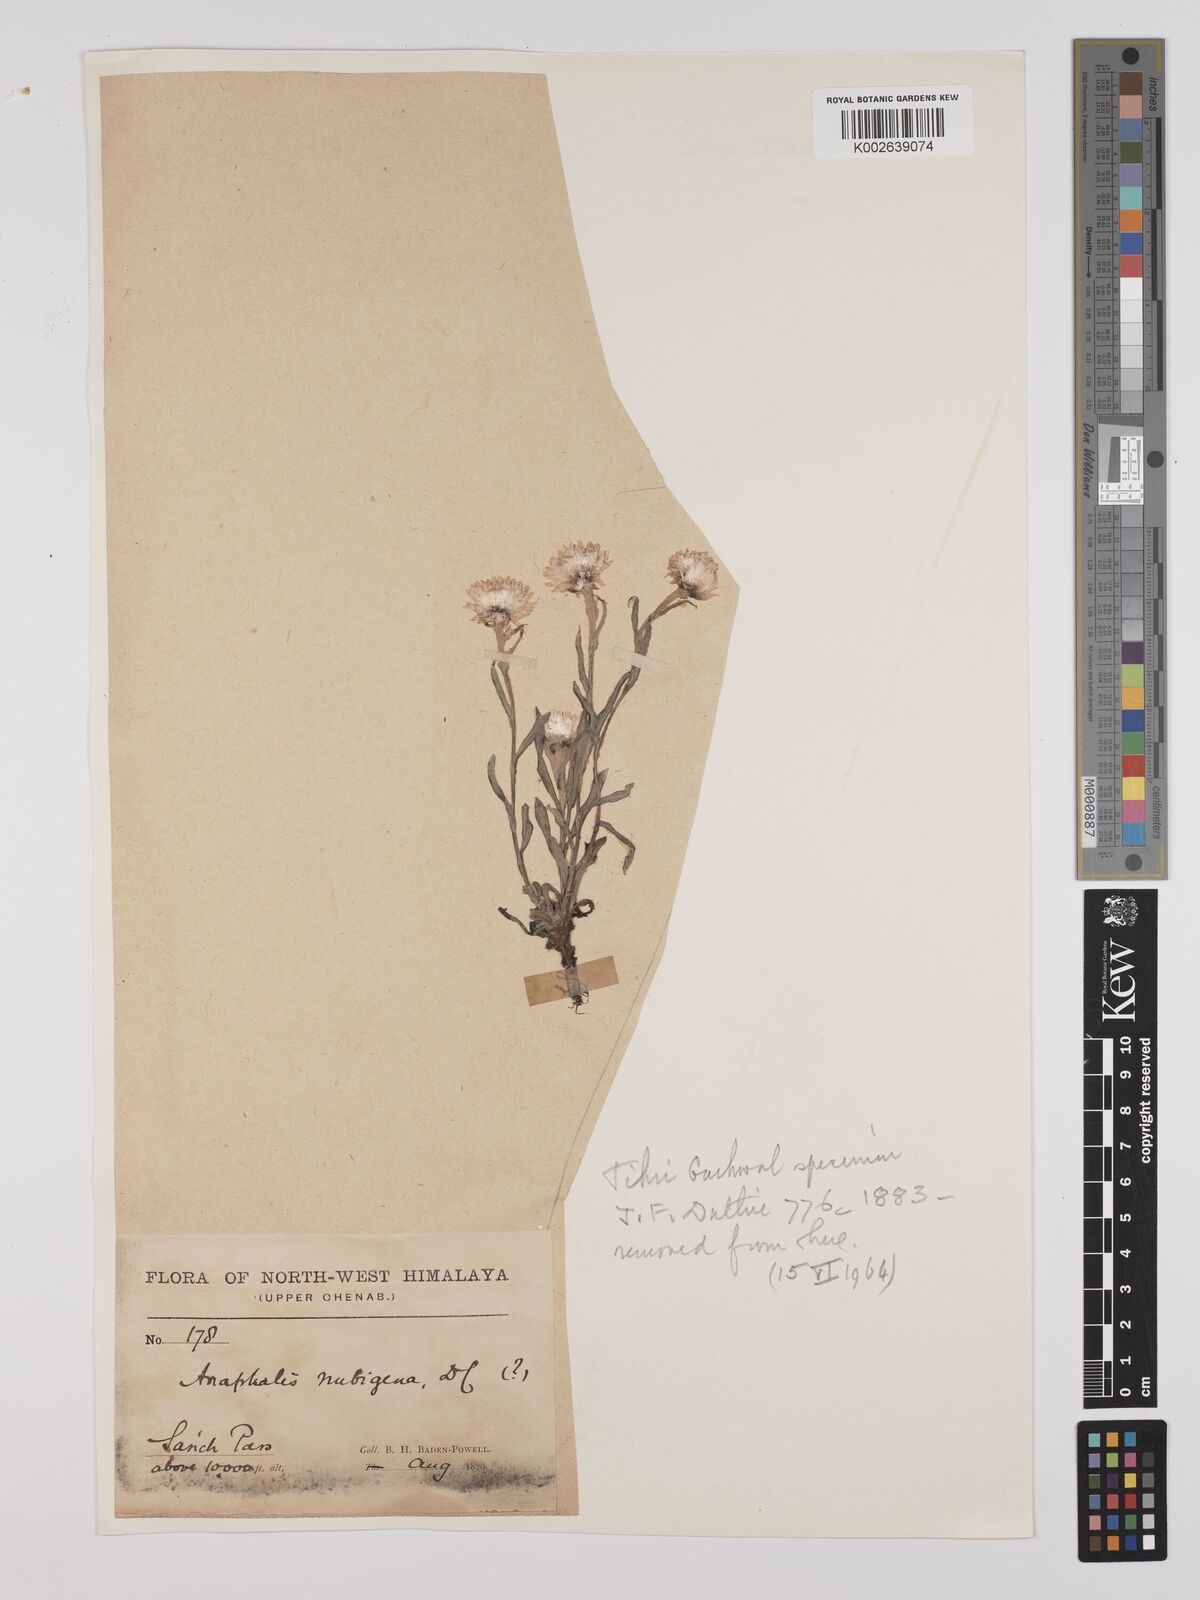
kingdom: Plantae
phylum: Tracheophyta
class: Magnoliopsida
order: Asterales
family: Asteraceae
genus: Anaphalis
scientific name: Anaphalis nepalensis
